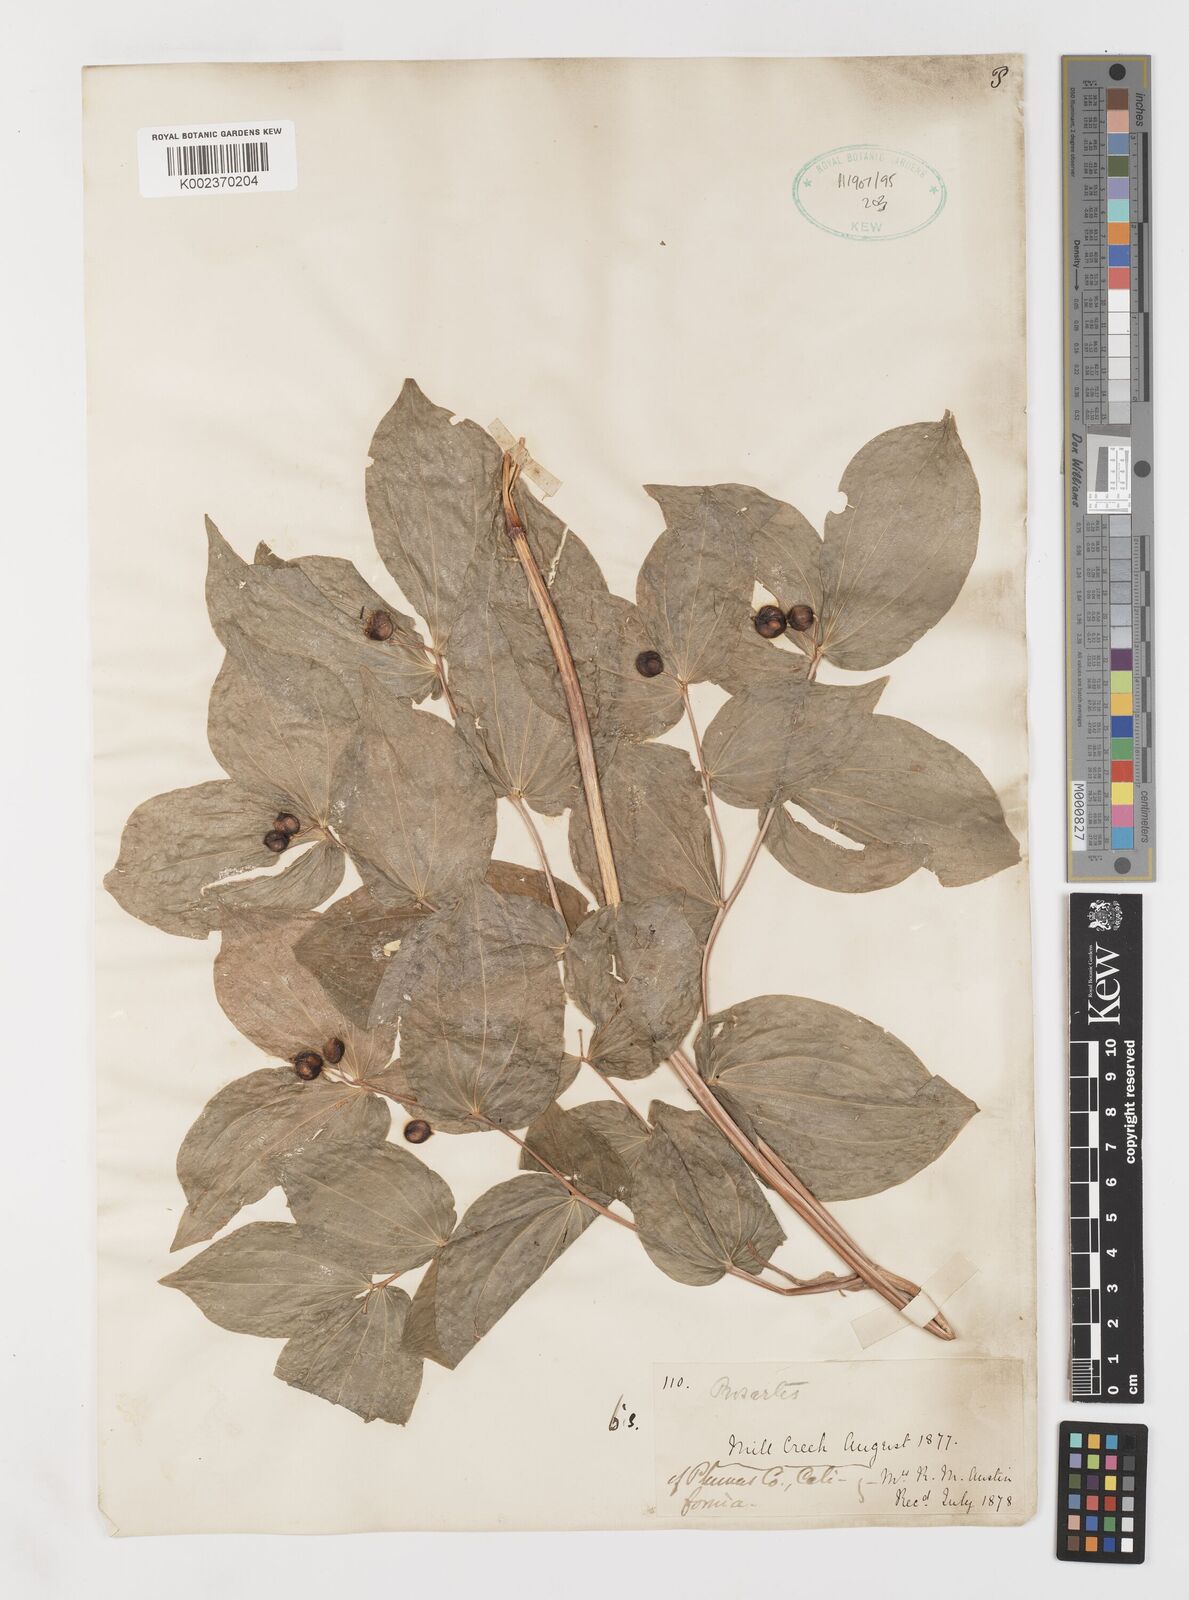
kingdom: Plantae
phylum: Tracheophyta
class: Liliopsida
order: Liliales
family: Liliaceae
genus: Prosartes
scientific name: Prosartes lanuginosa
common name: Hairy mandarin
